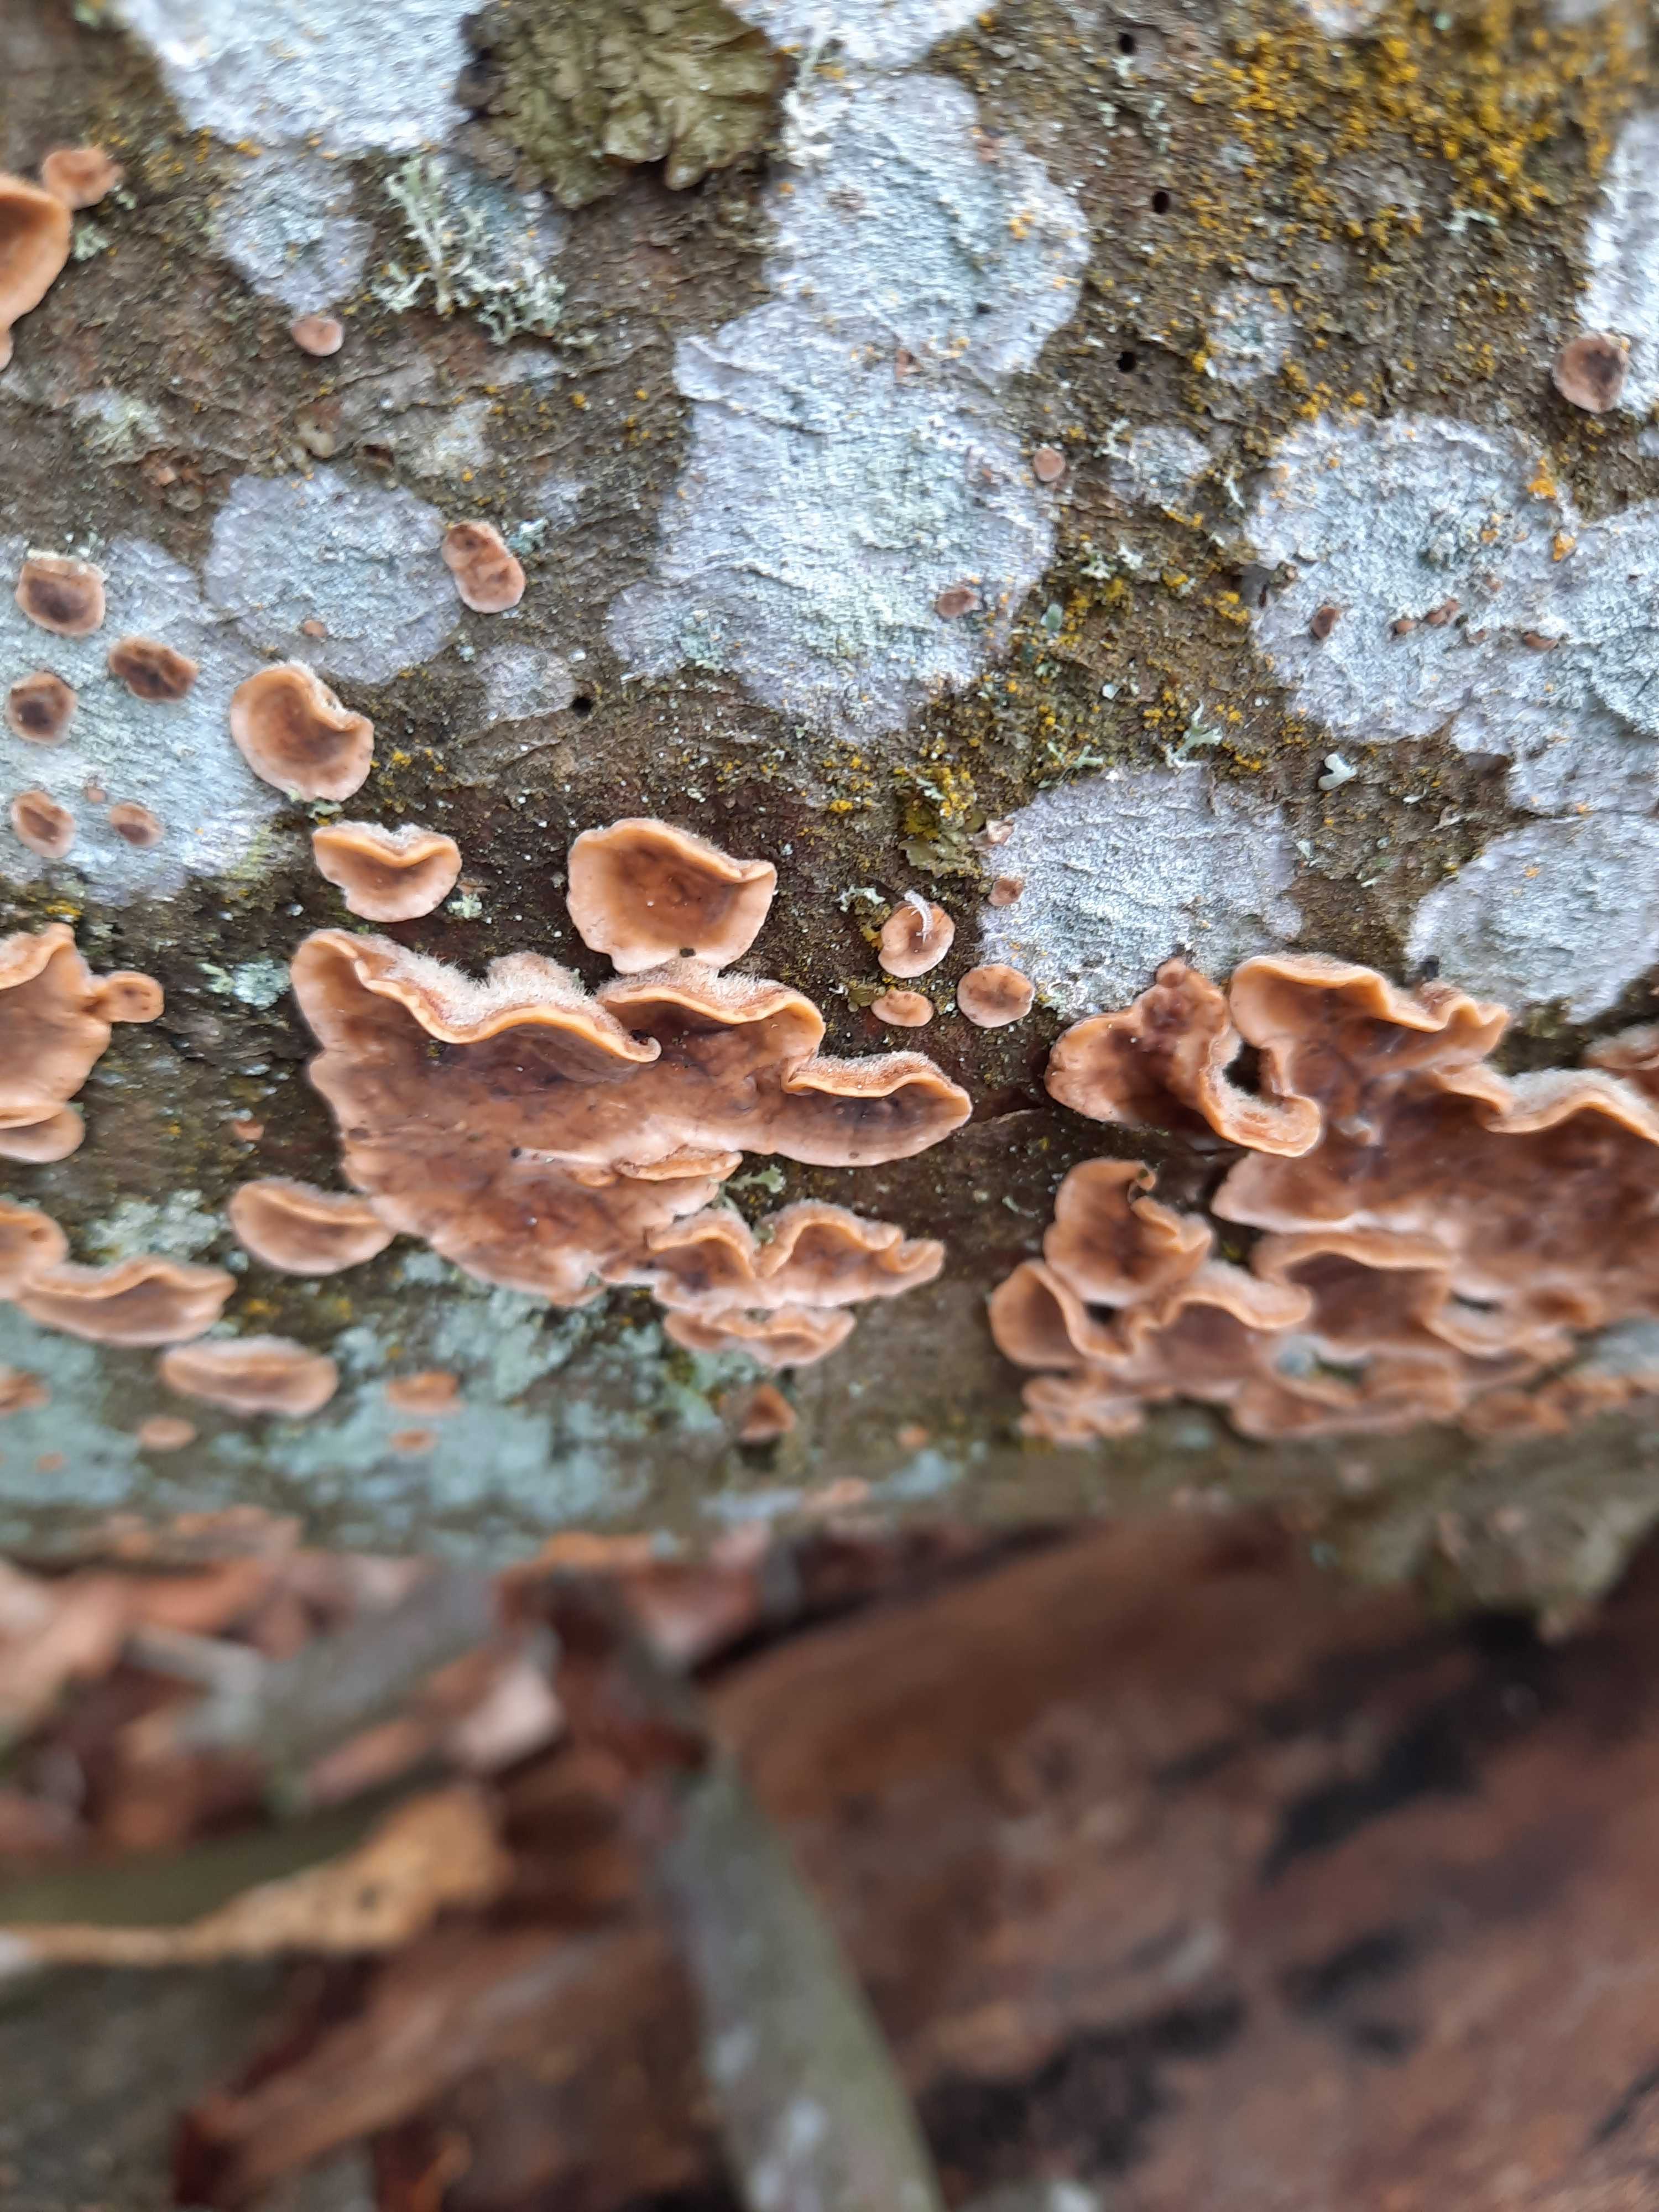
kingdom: Fungi
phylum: Basidiomycota
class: Agaricomycetes
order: Russulales
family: Stereaceae
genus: Stereum
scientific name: Stereum hirsutum
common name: håret lædersvamp
